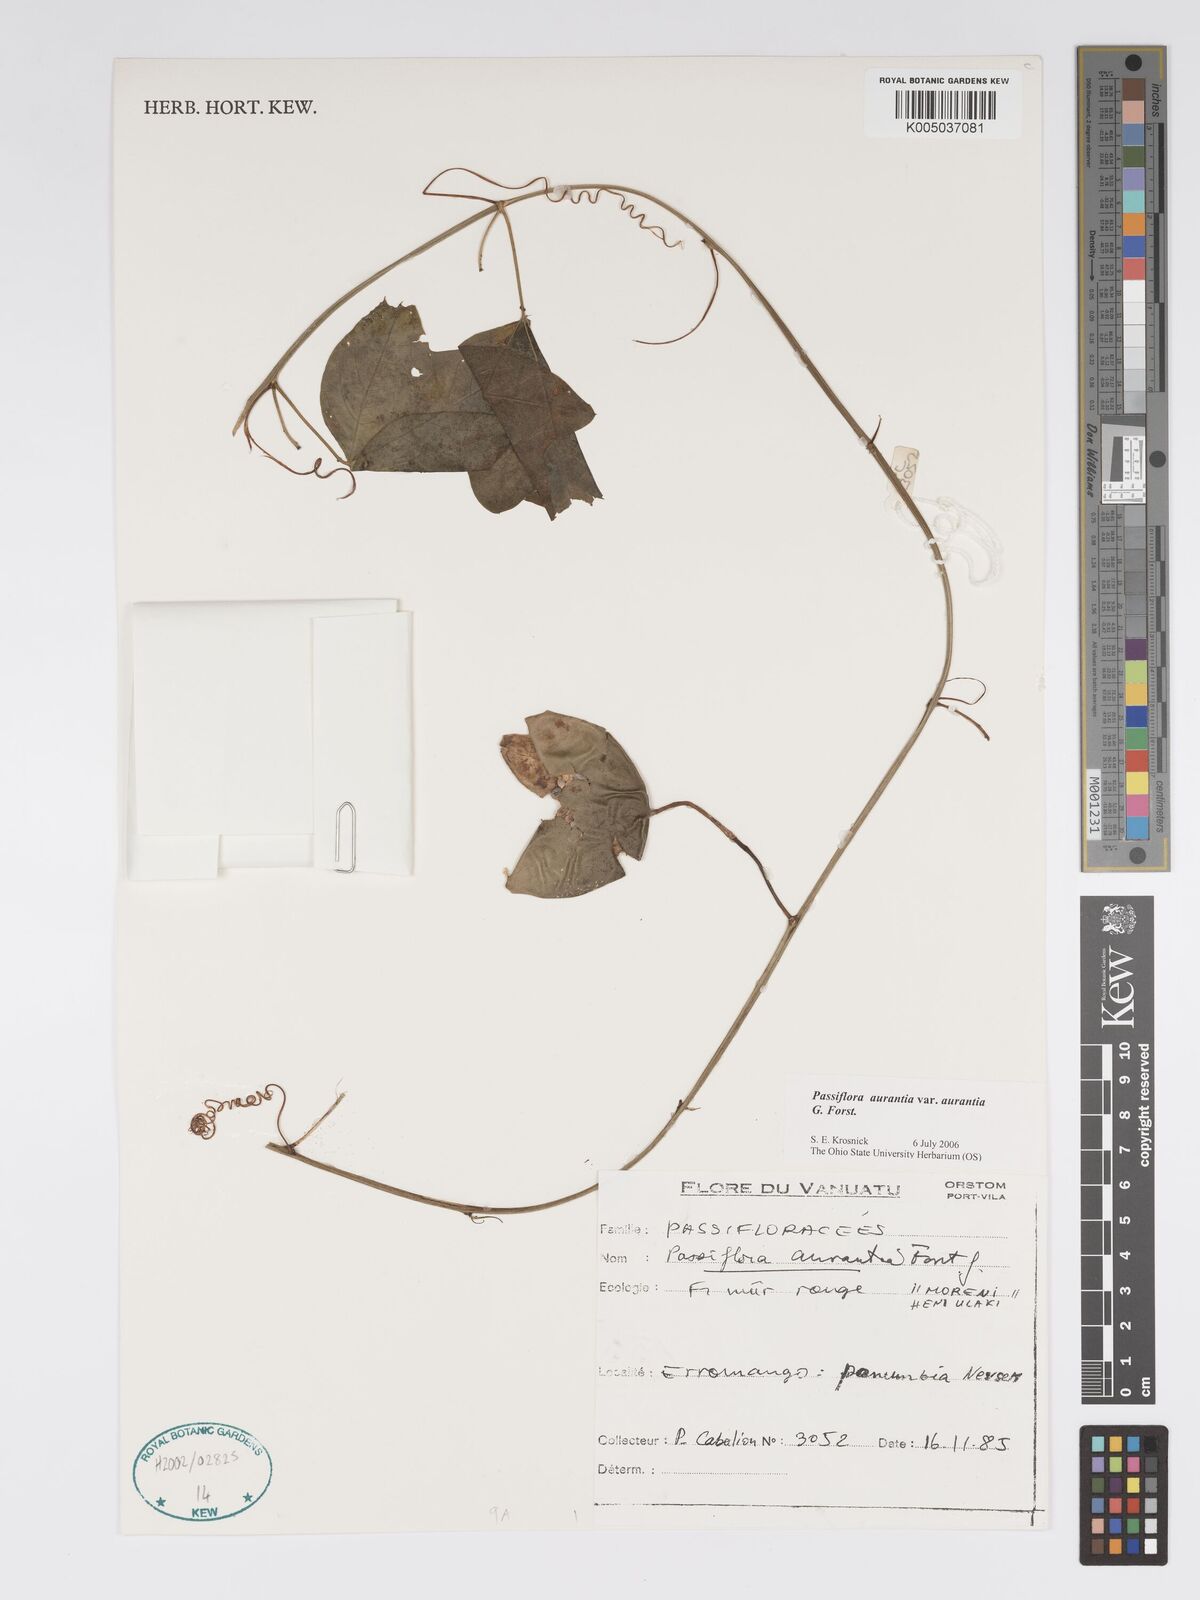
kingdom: Plantae
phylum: Tracheophyta
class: Magnoliopsida
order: Malpighiales
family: Passifloraceae
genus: Passiflora
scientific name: Passiflora aurantia
